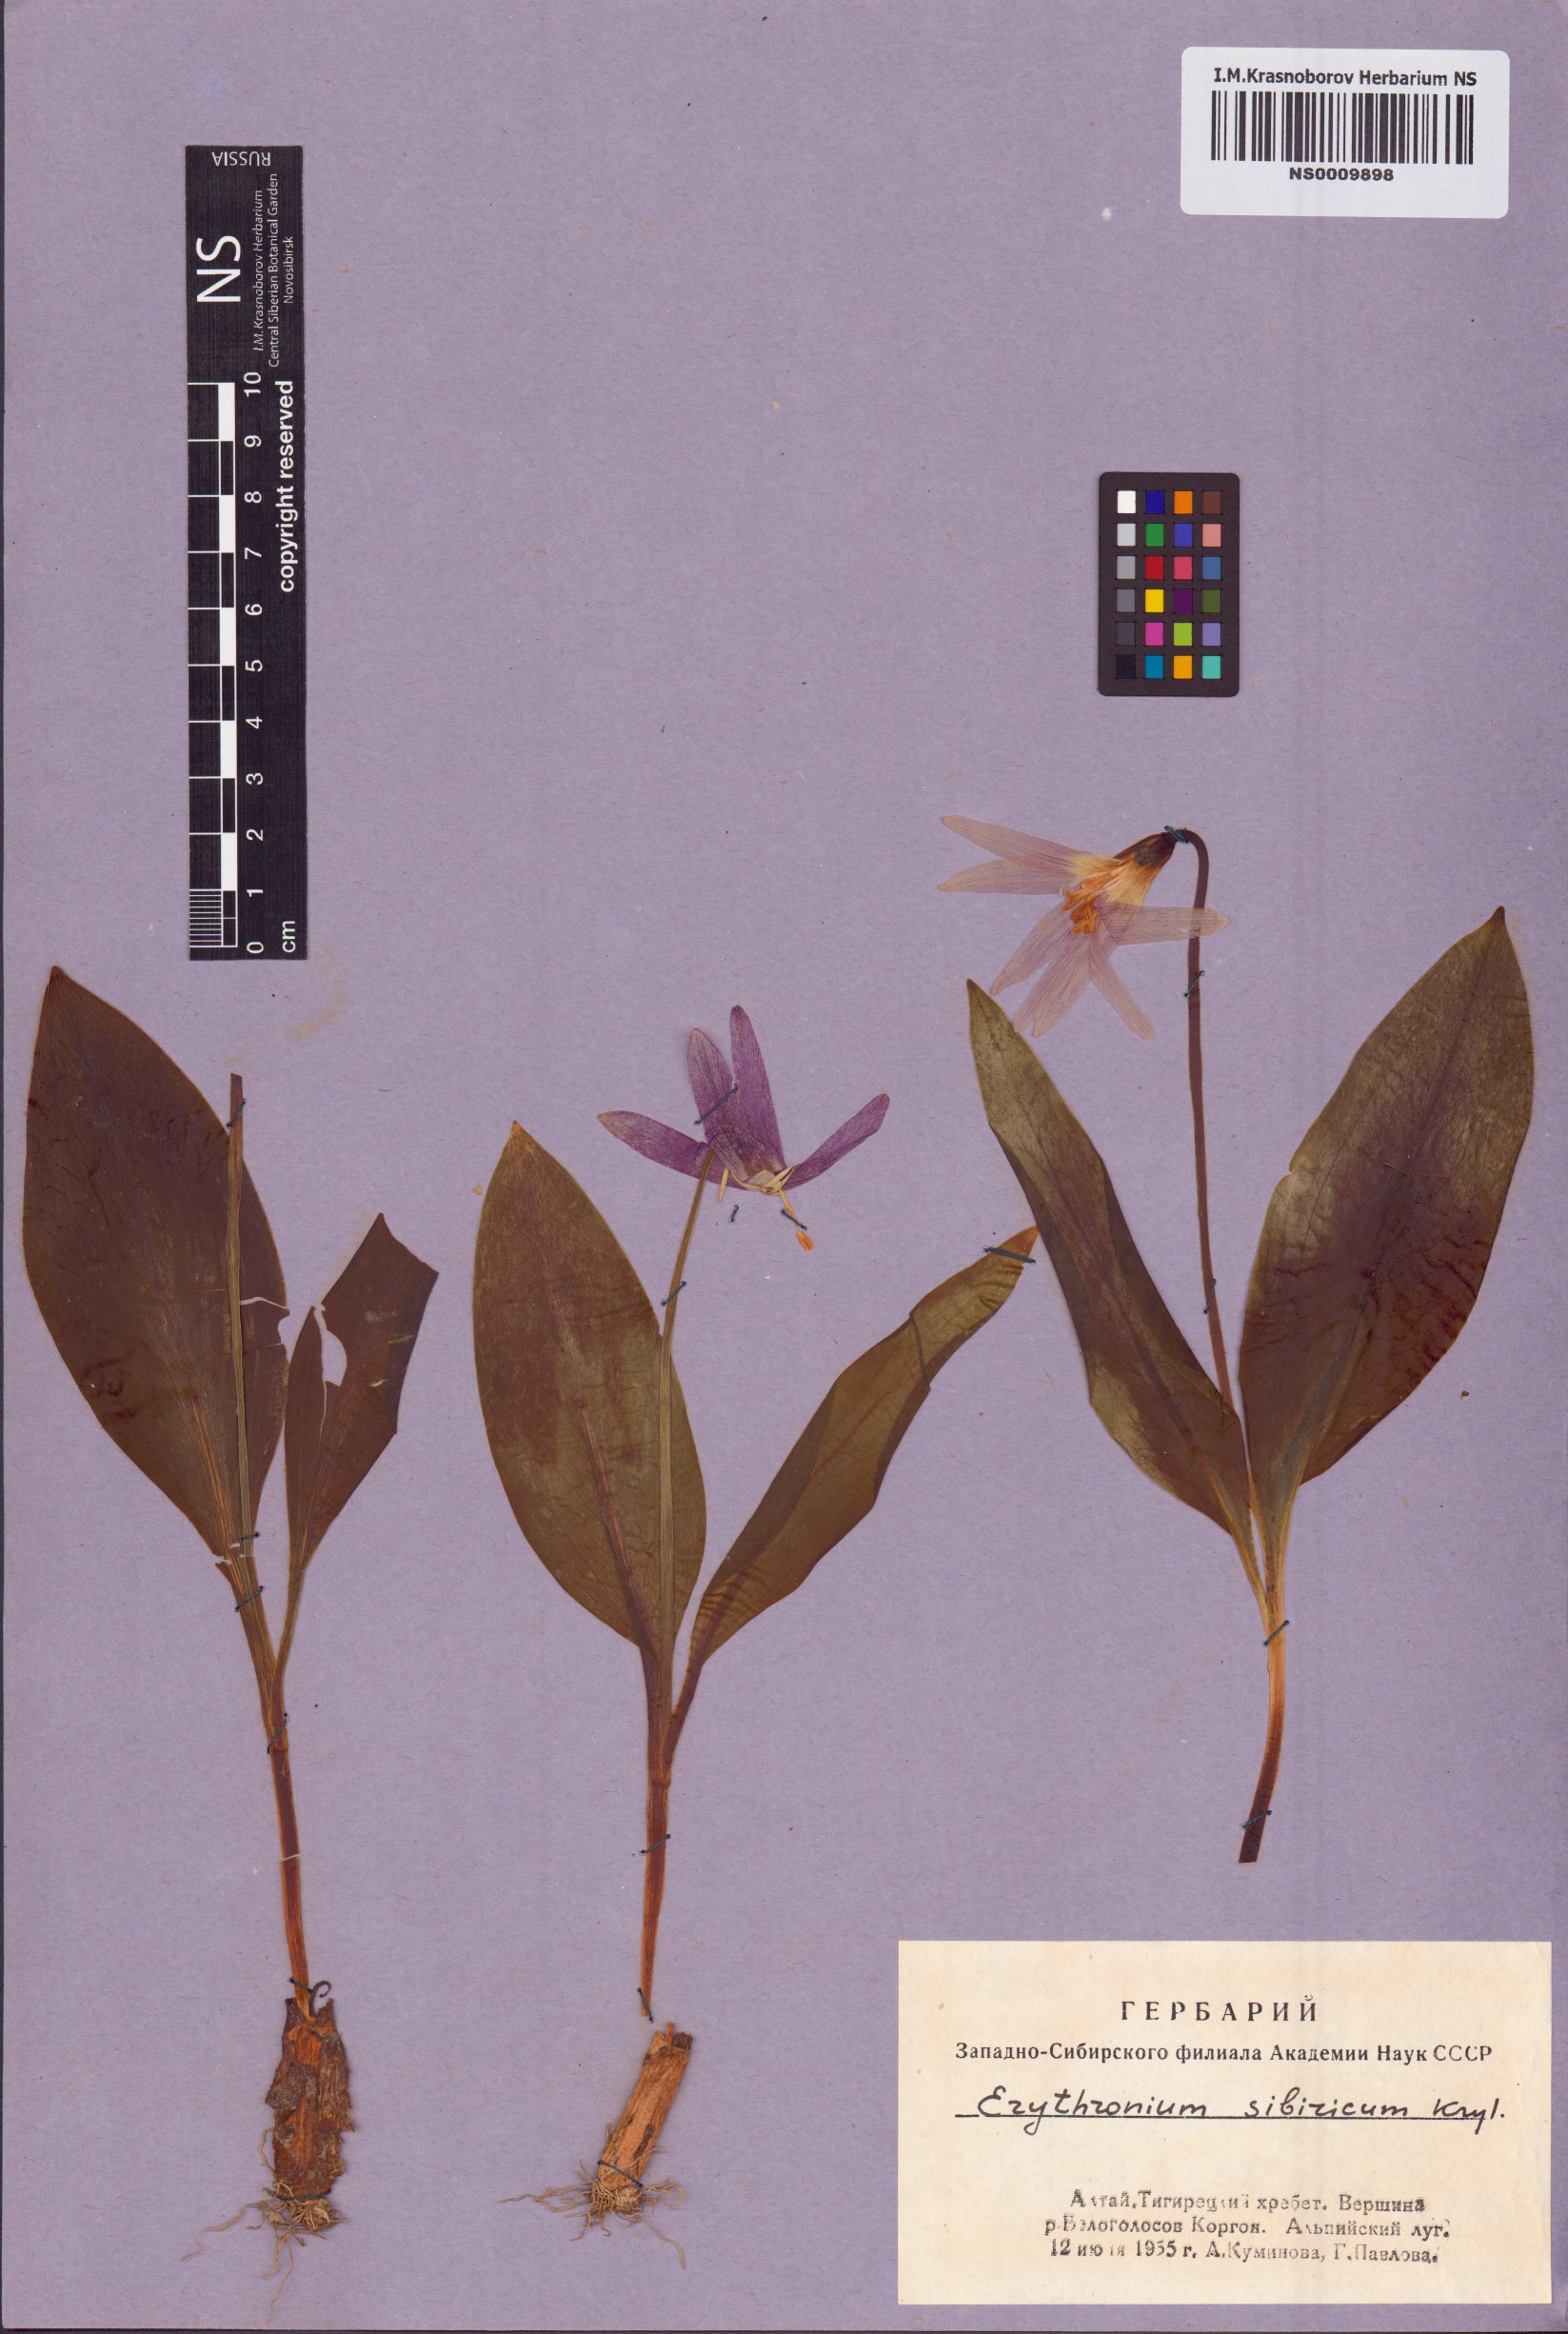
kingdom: Plantae
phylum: Tracheophyta
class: Liliopsida
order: Liliales
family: Liliaceae
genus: Erythronium
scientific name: Erythronium sibiricum
